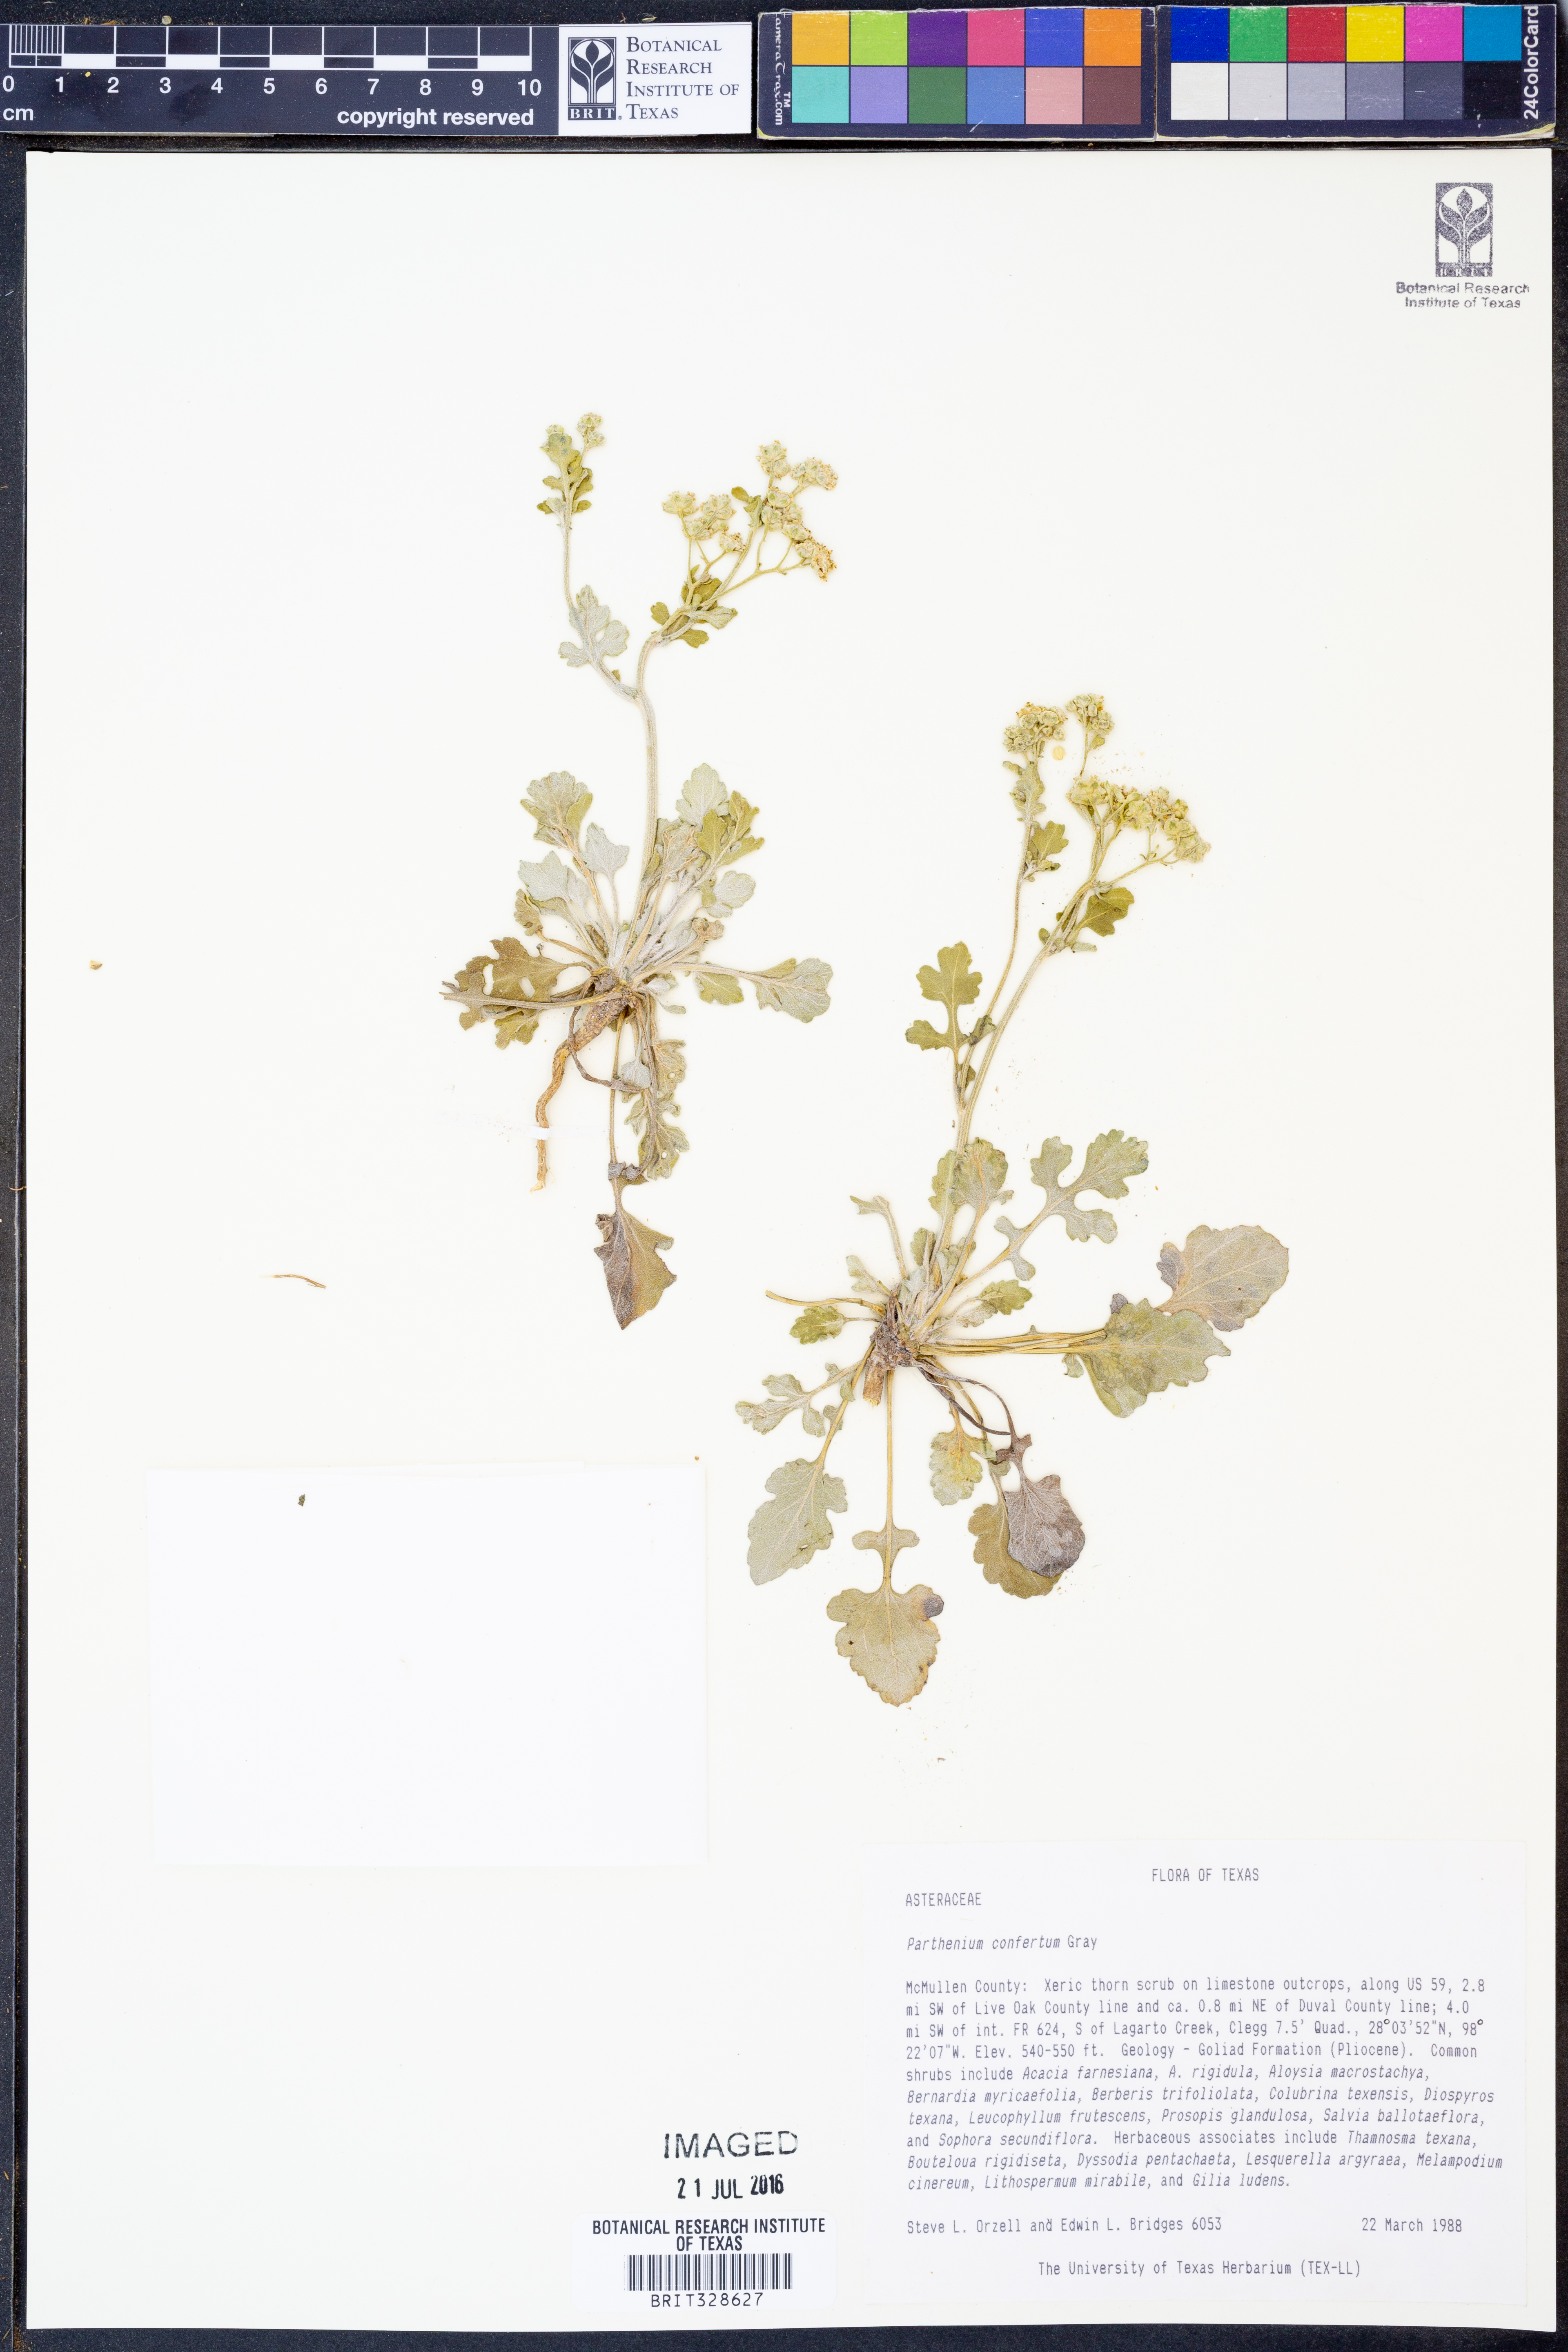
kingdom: Plantae
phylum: Tracheophyta
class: Magnoliopsida
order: Asterales
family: Asteraceae
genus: Parthenium
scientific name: Parthenium confertum
